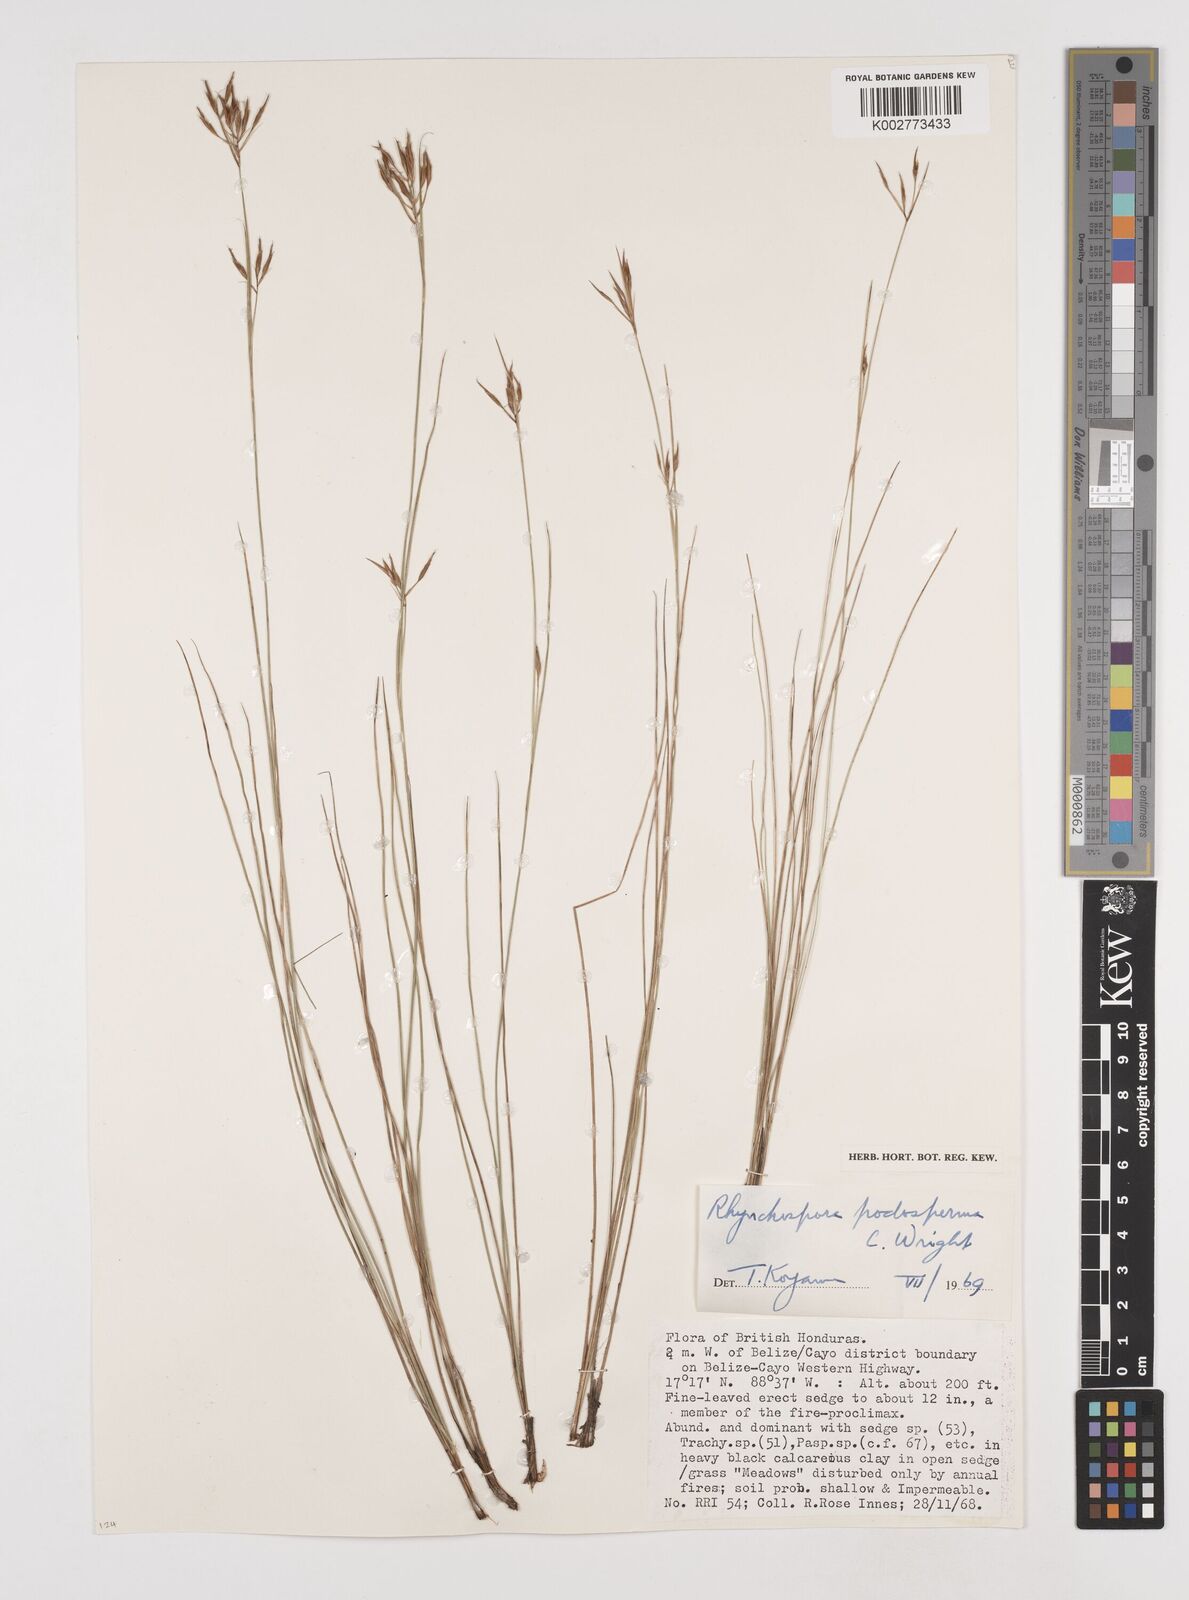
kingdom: Plantae
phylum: Tracheophyta
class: Liliopsida
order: Poales
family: Cyperaceae
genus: Rhynchospora
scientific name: Rhynchospora filiformis
